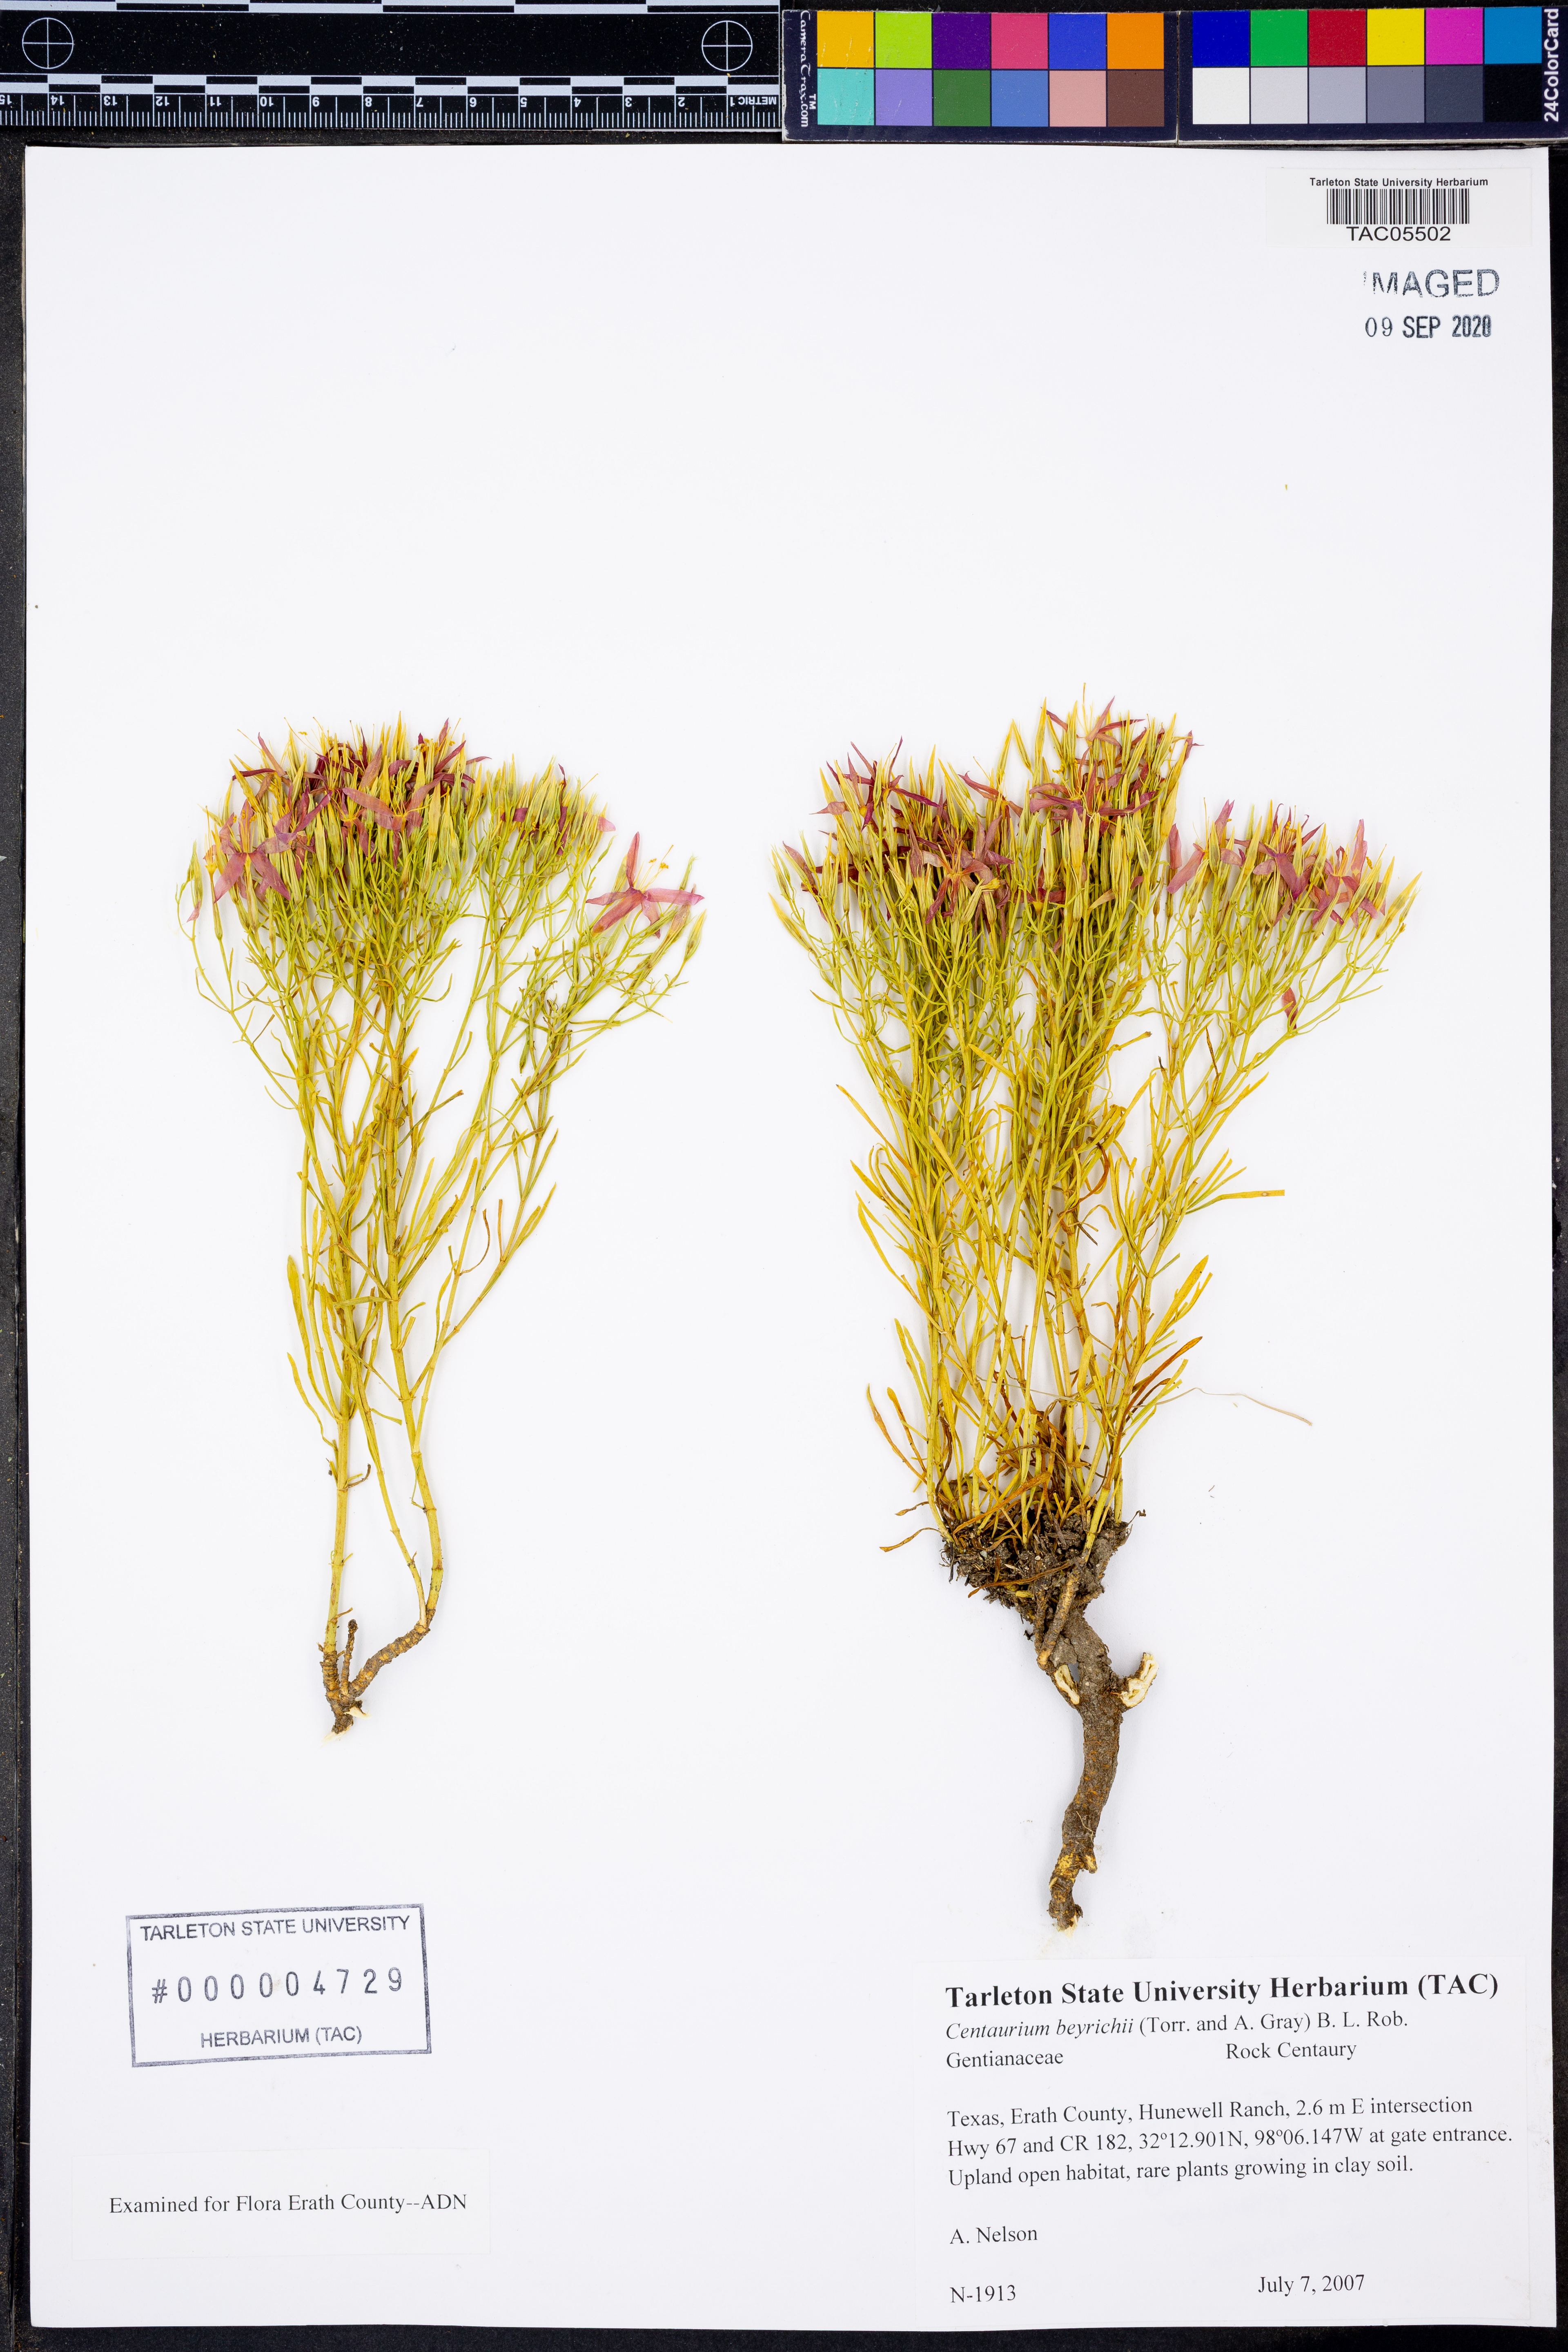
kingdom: Plantae
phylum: Tracheophyta
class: Magnoliopsida
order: Gentianales
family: Gentianaceae
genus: Zeltnera
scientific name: Zeltnera beyrichii
